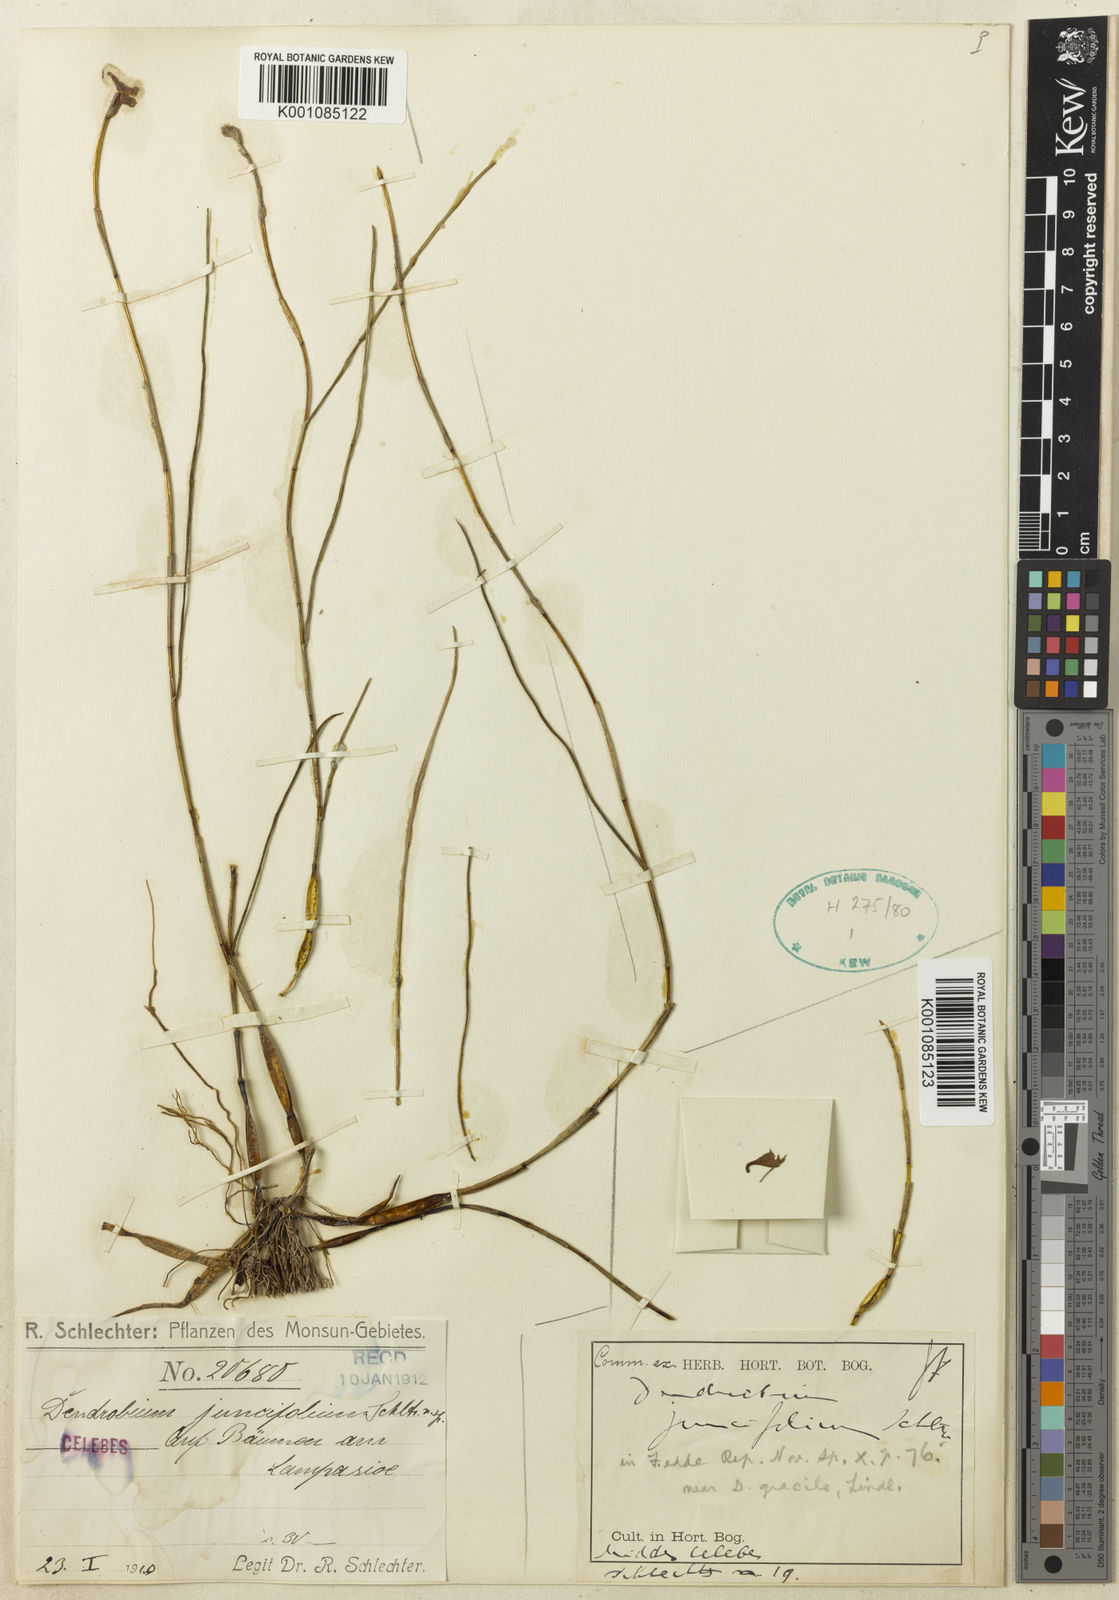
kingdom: Plantae
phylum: Tracheophyta
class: Liliopsida
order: Asparagales
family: Orchidaceae
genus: Dendrobium
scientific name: Dendrobium juncifolium
